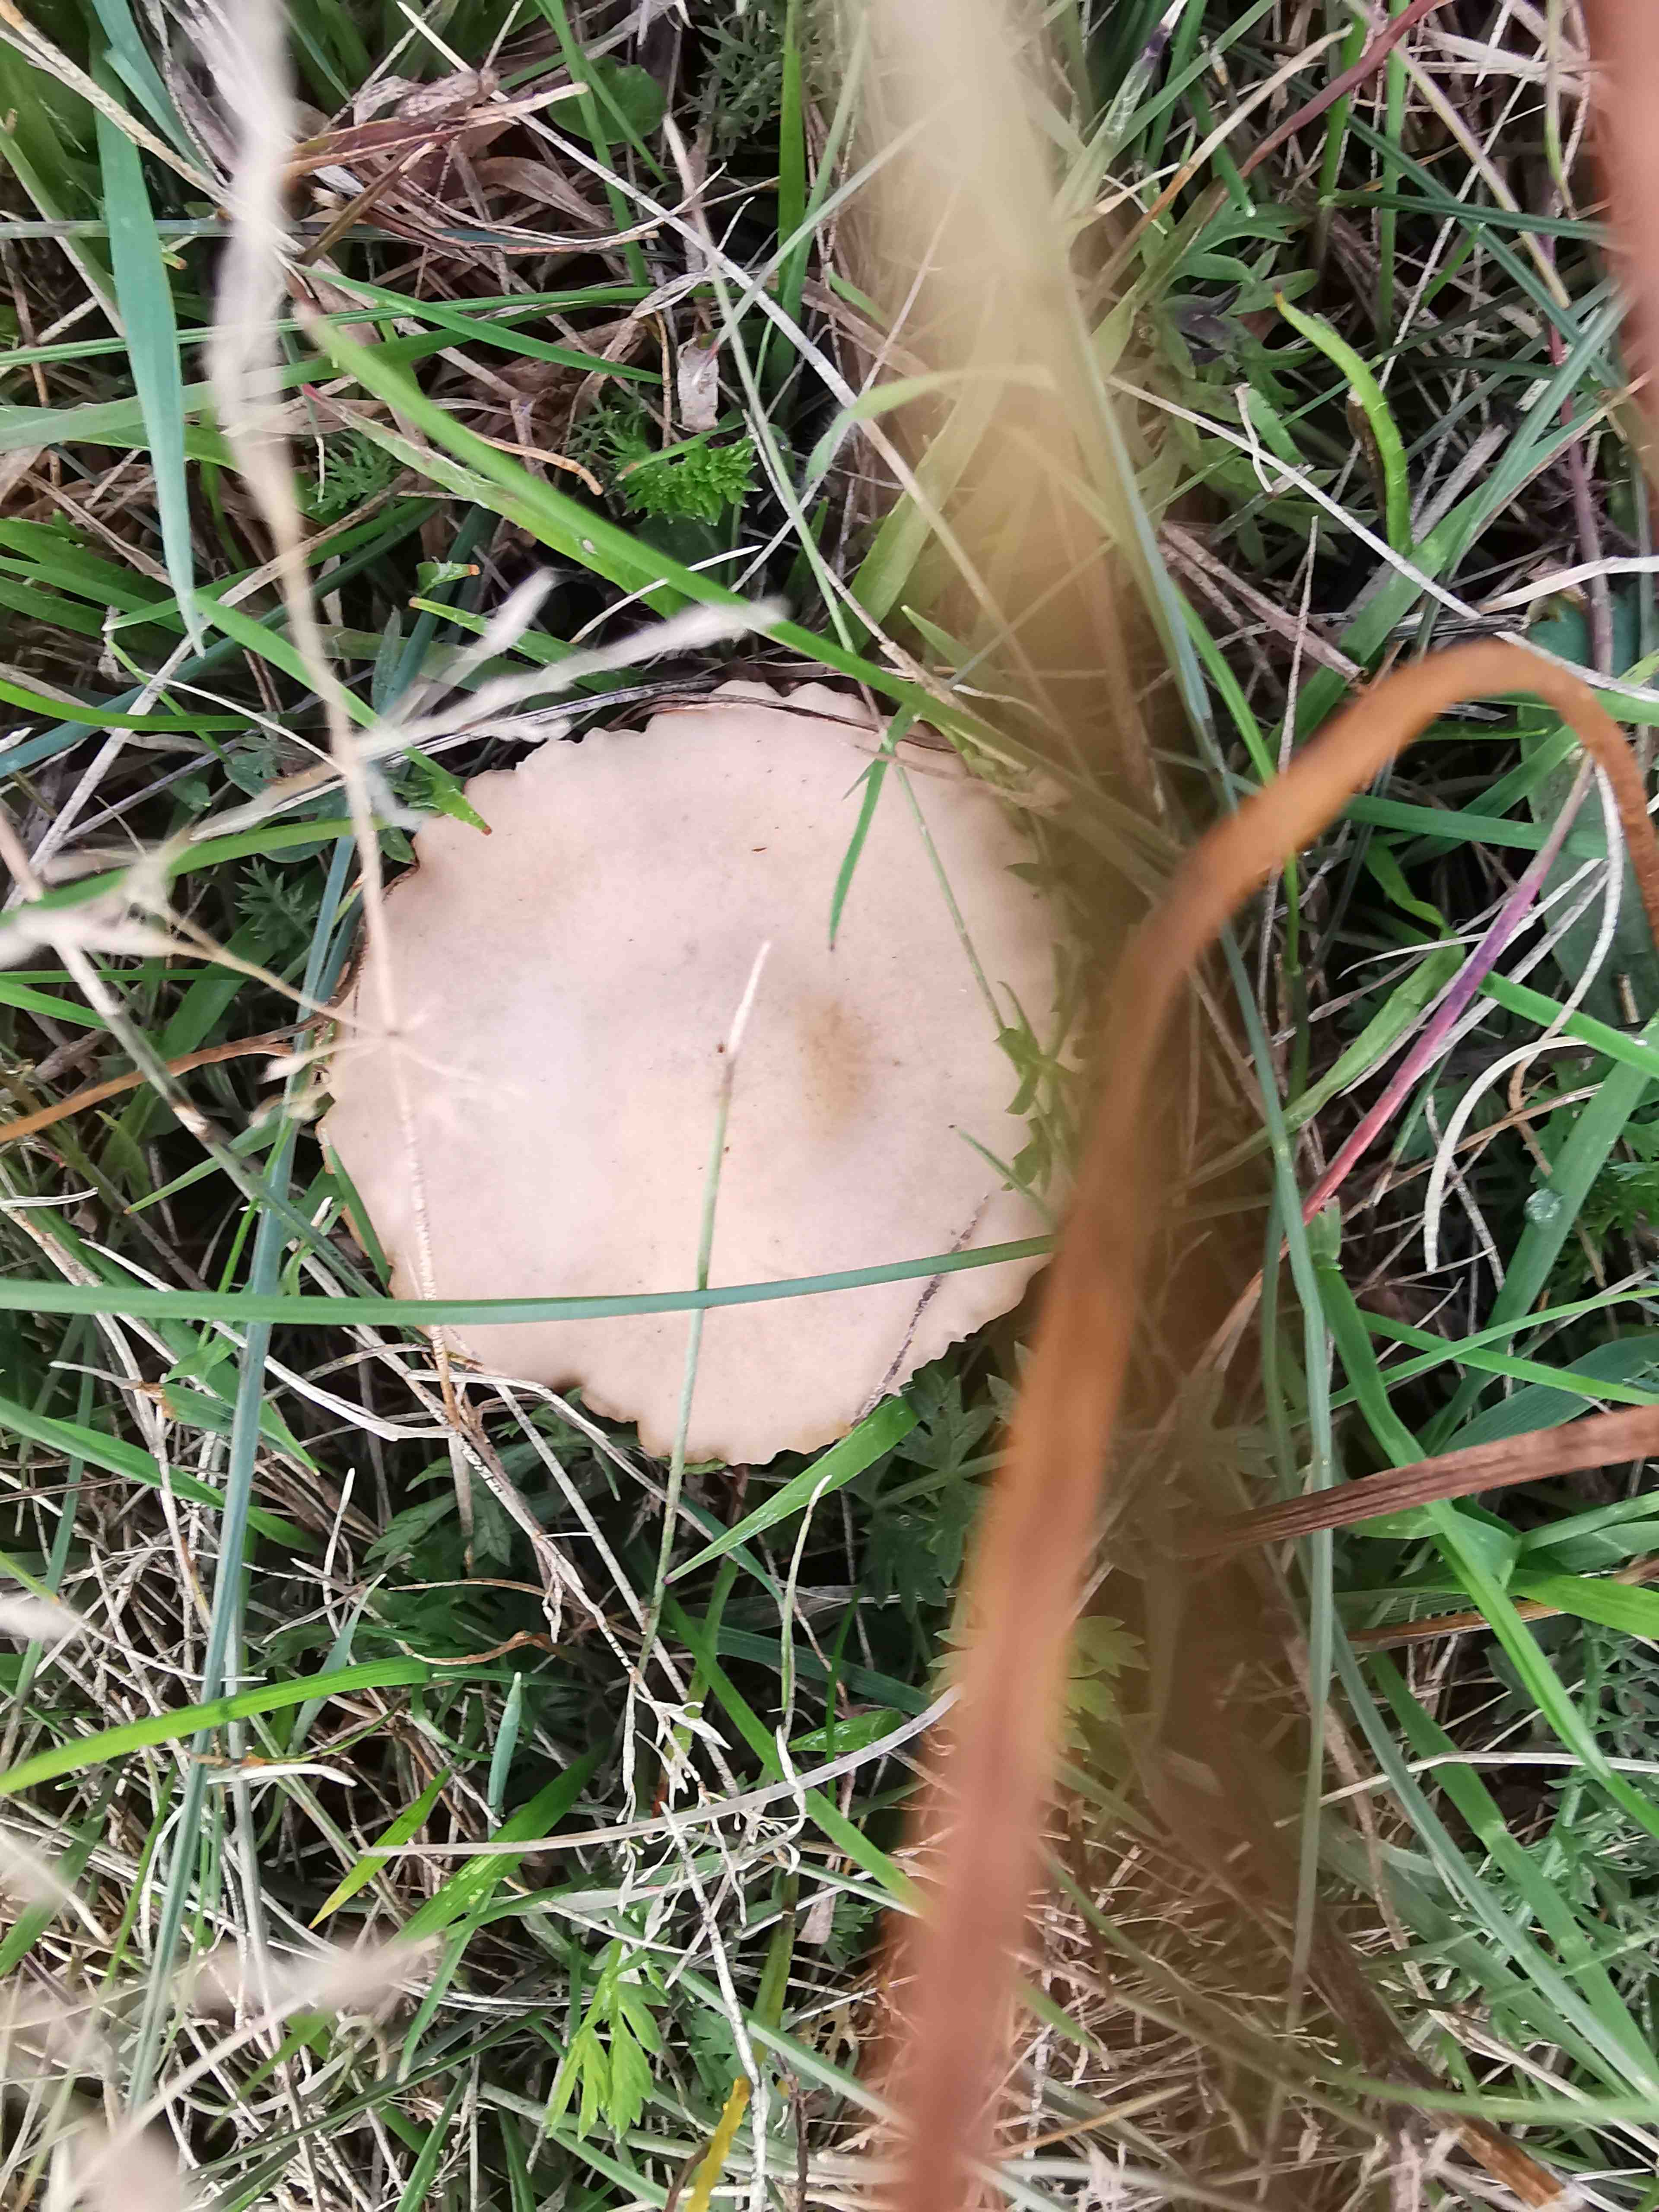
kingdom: Fungi
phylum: Basidiomycota
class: Agaricomycetes
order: Agaricales
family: Marasmiaceae
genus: Marasmius
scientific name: Marasmius oreades
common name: elledans-bruskhat
